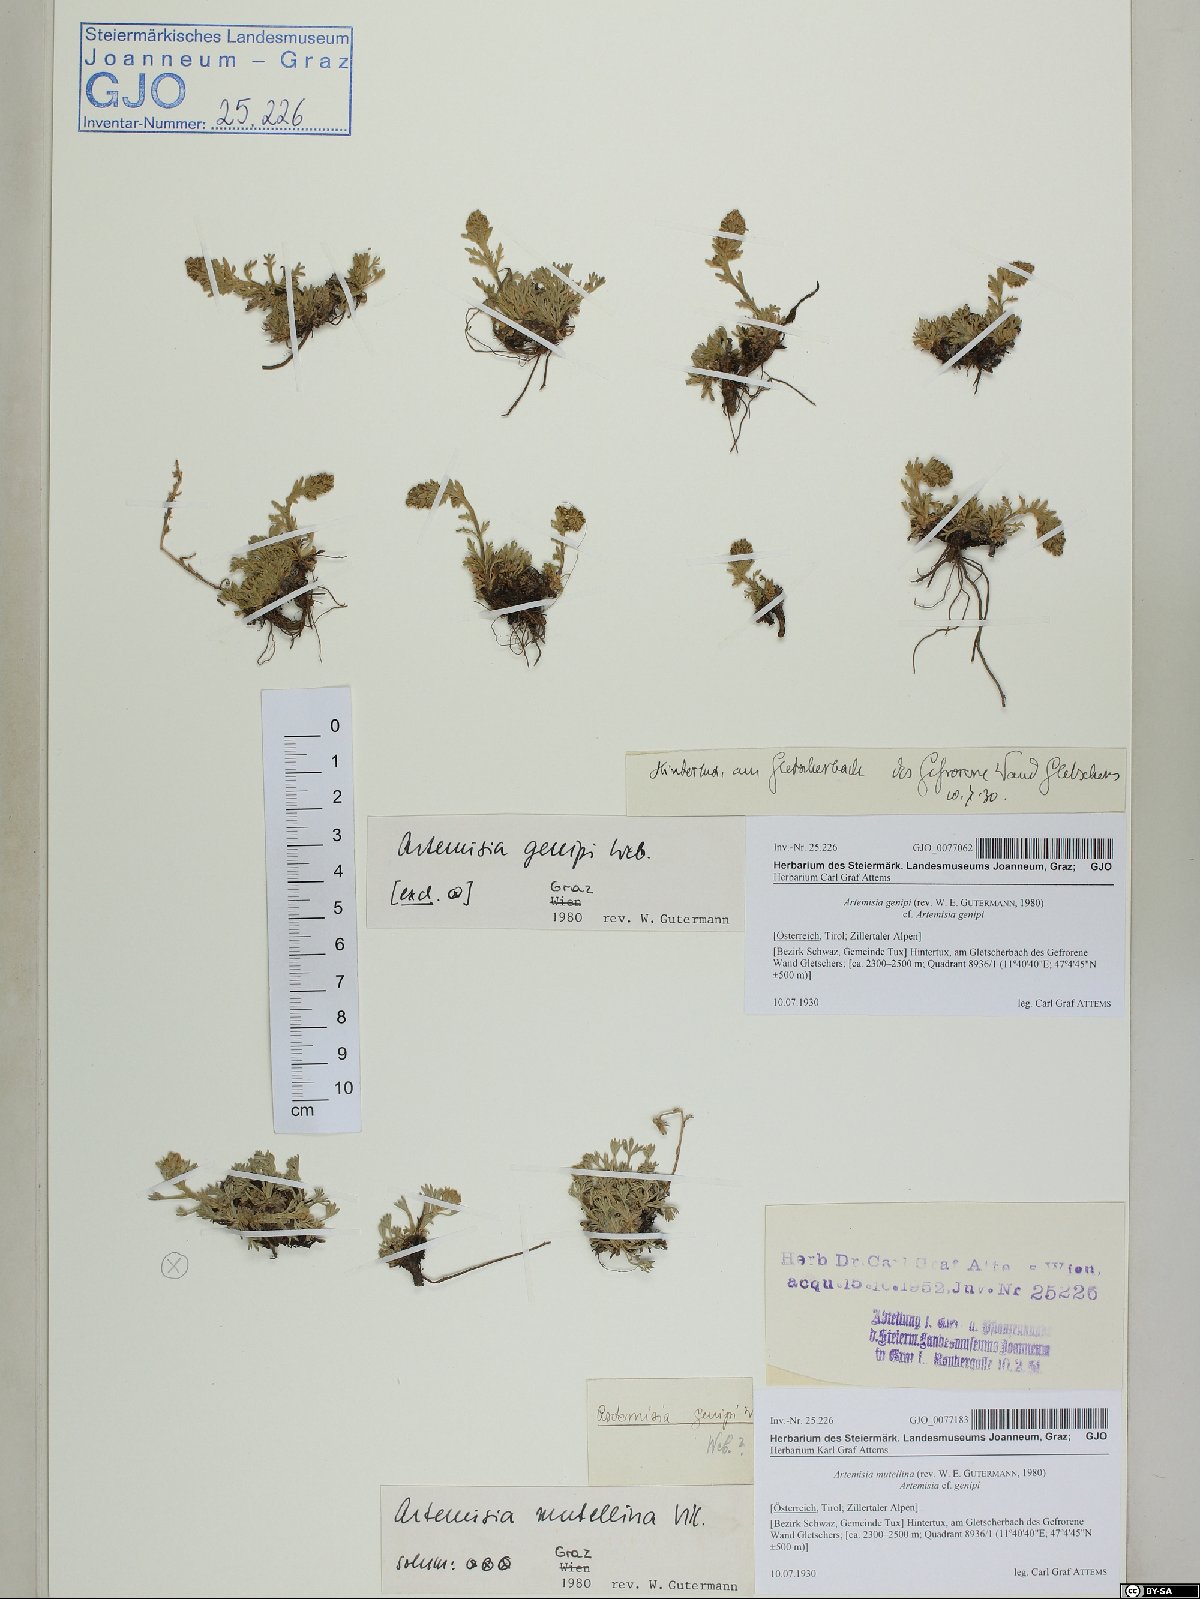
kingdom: Plantae
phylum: Tracheophyta
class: Magnoliopsida
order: Asterales
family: Asteraceae
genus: Artemisia
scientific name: Artemisia genipi
